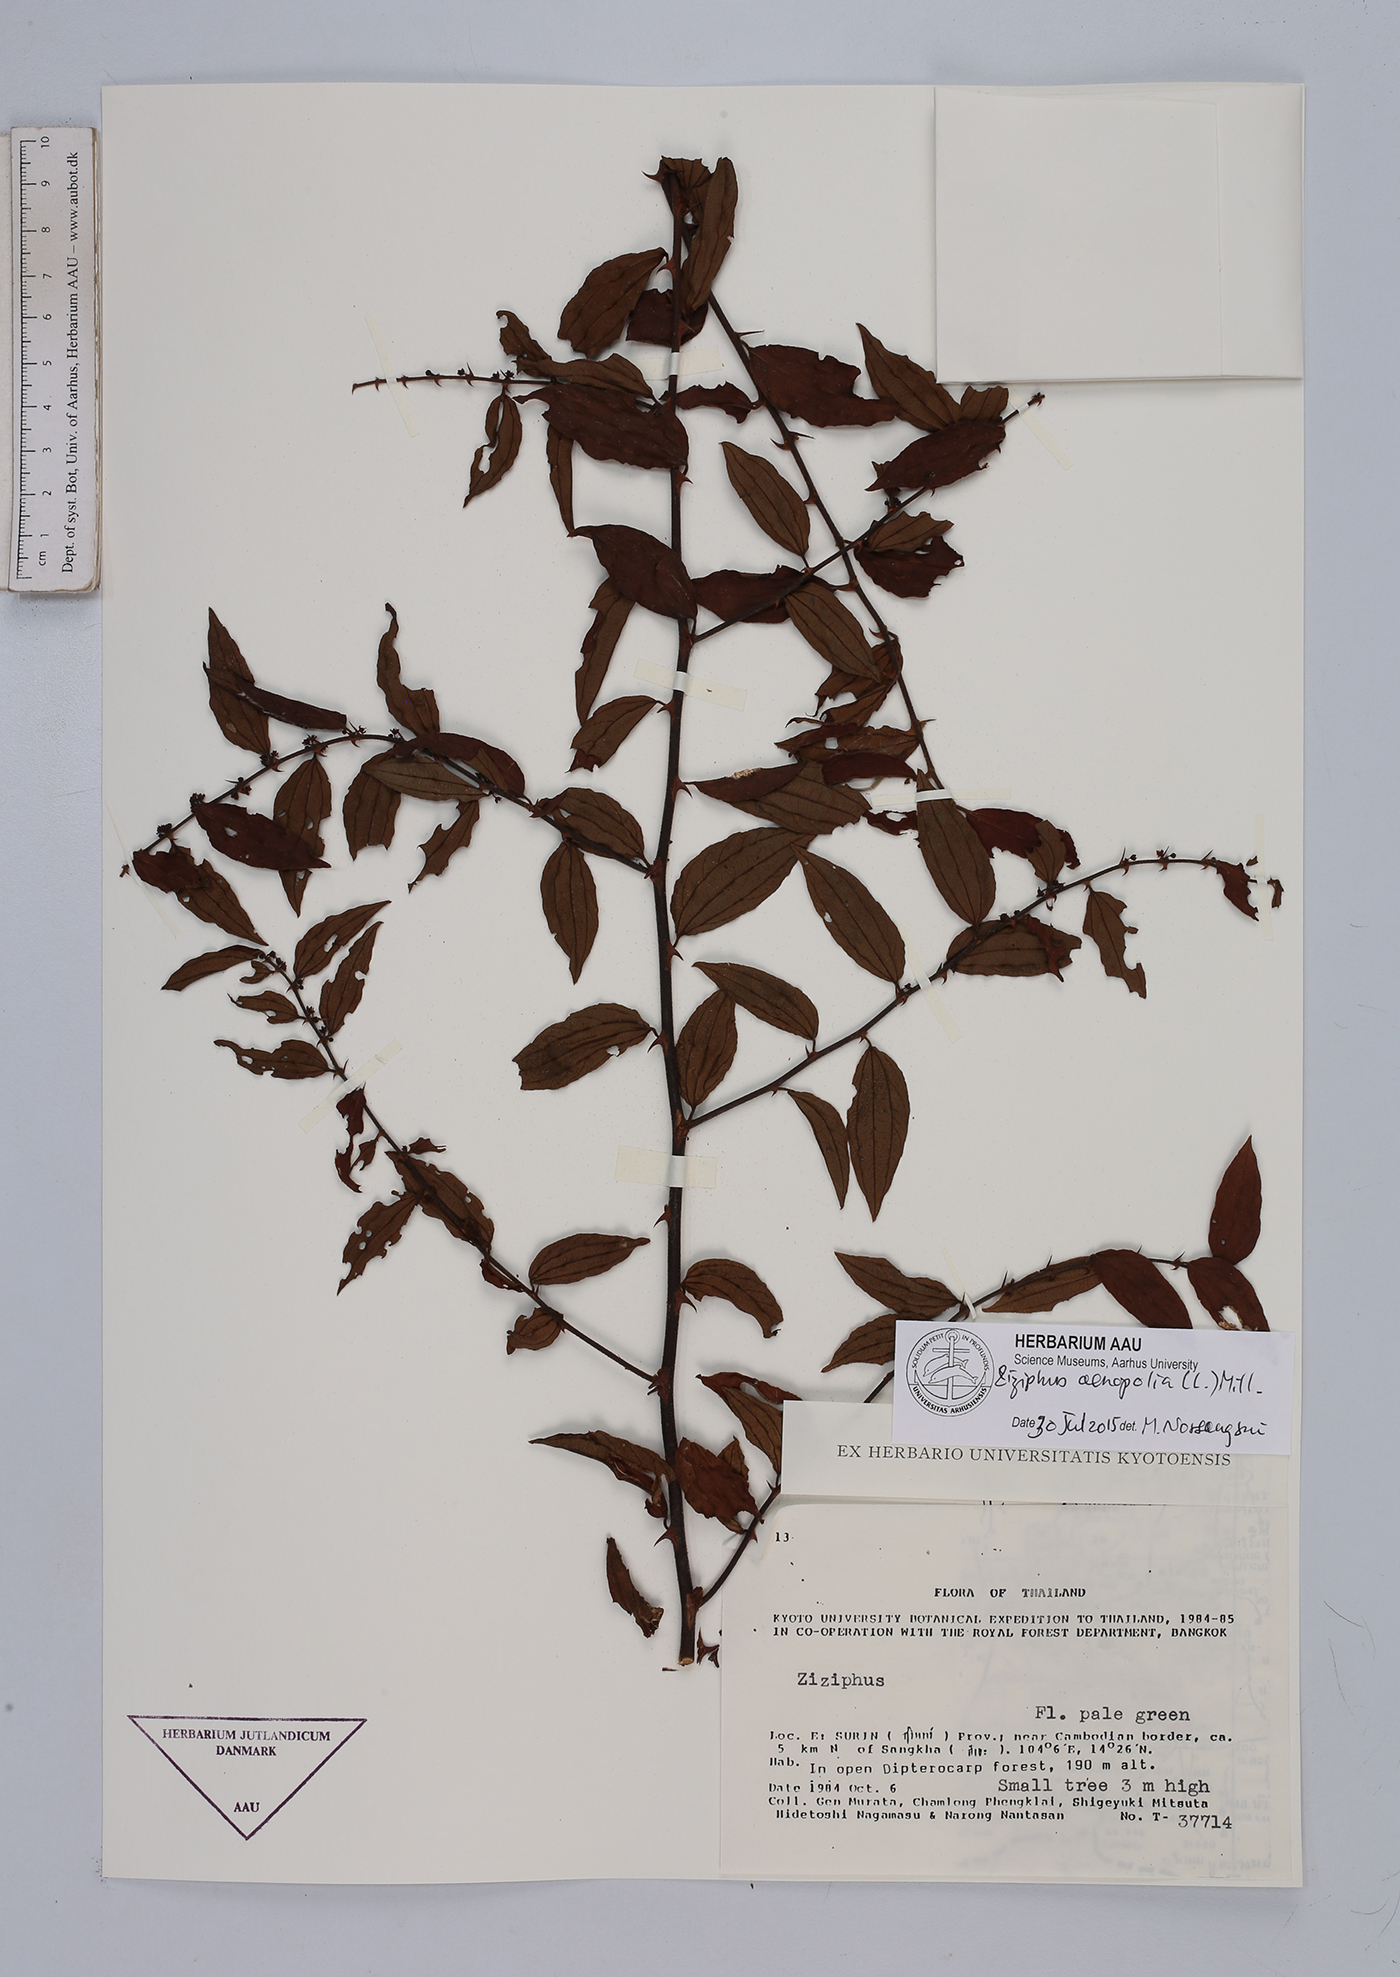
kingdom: Plantae
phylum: Tracheophyta
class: Magnoliopsida
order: Rosales
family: Rhamnaceae
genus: Ziziphus
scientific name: Ziziphus oenopolia
